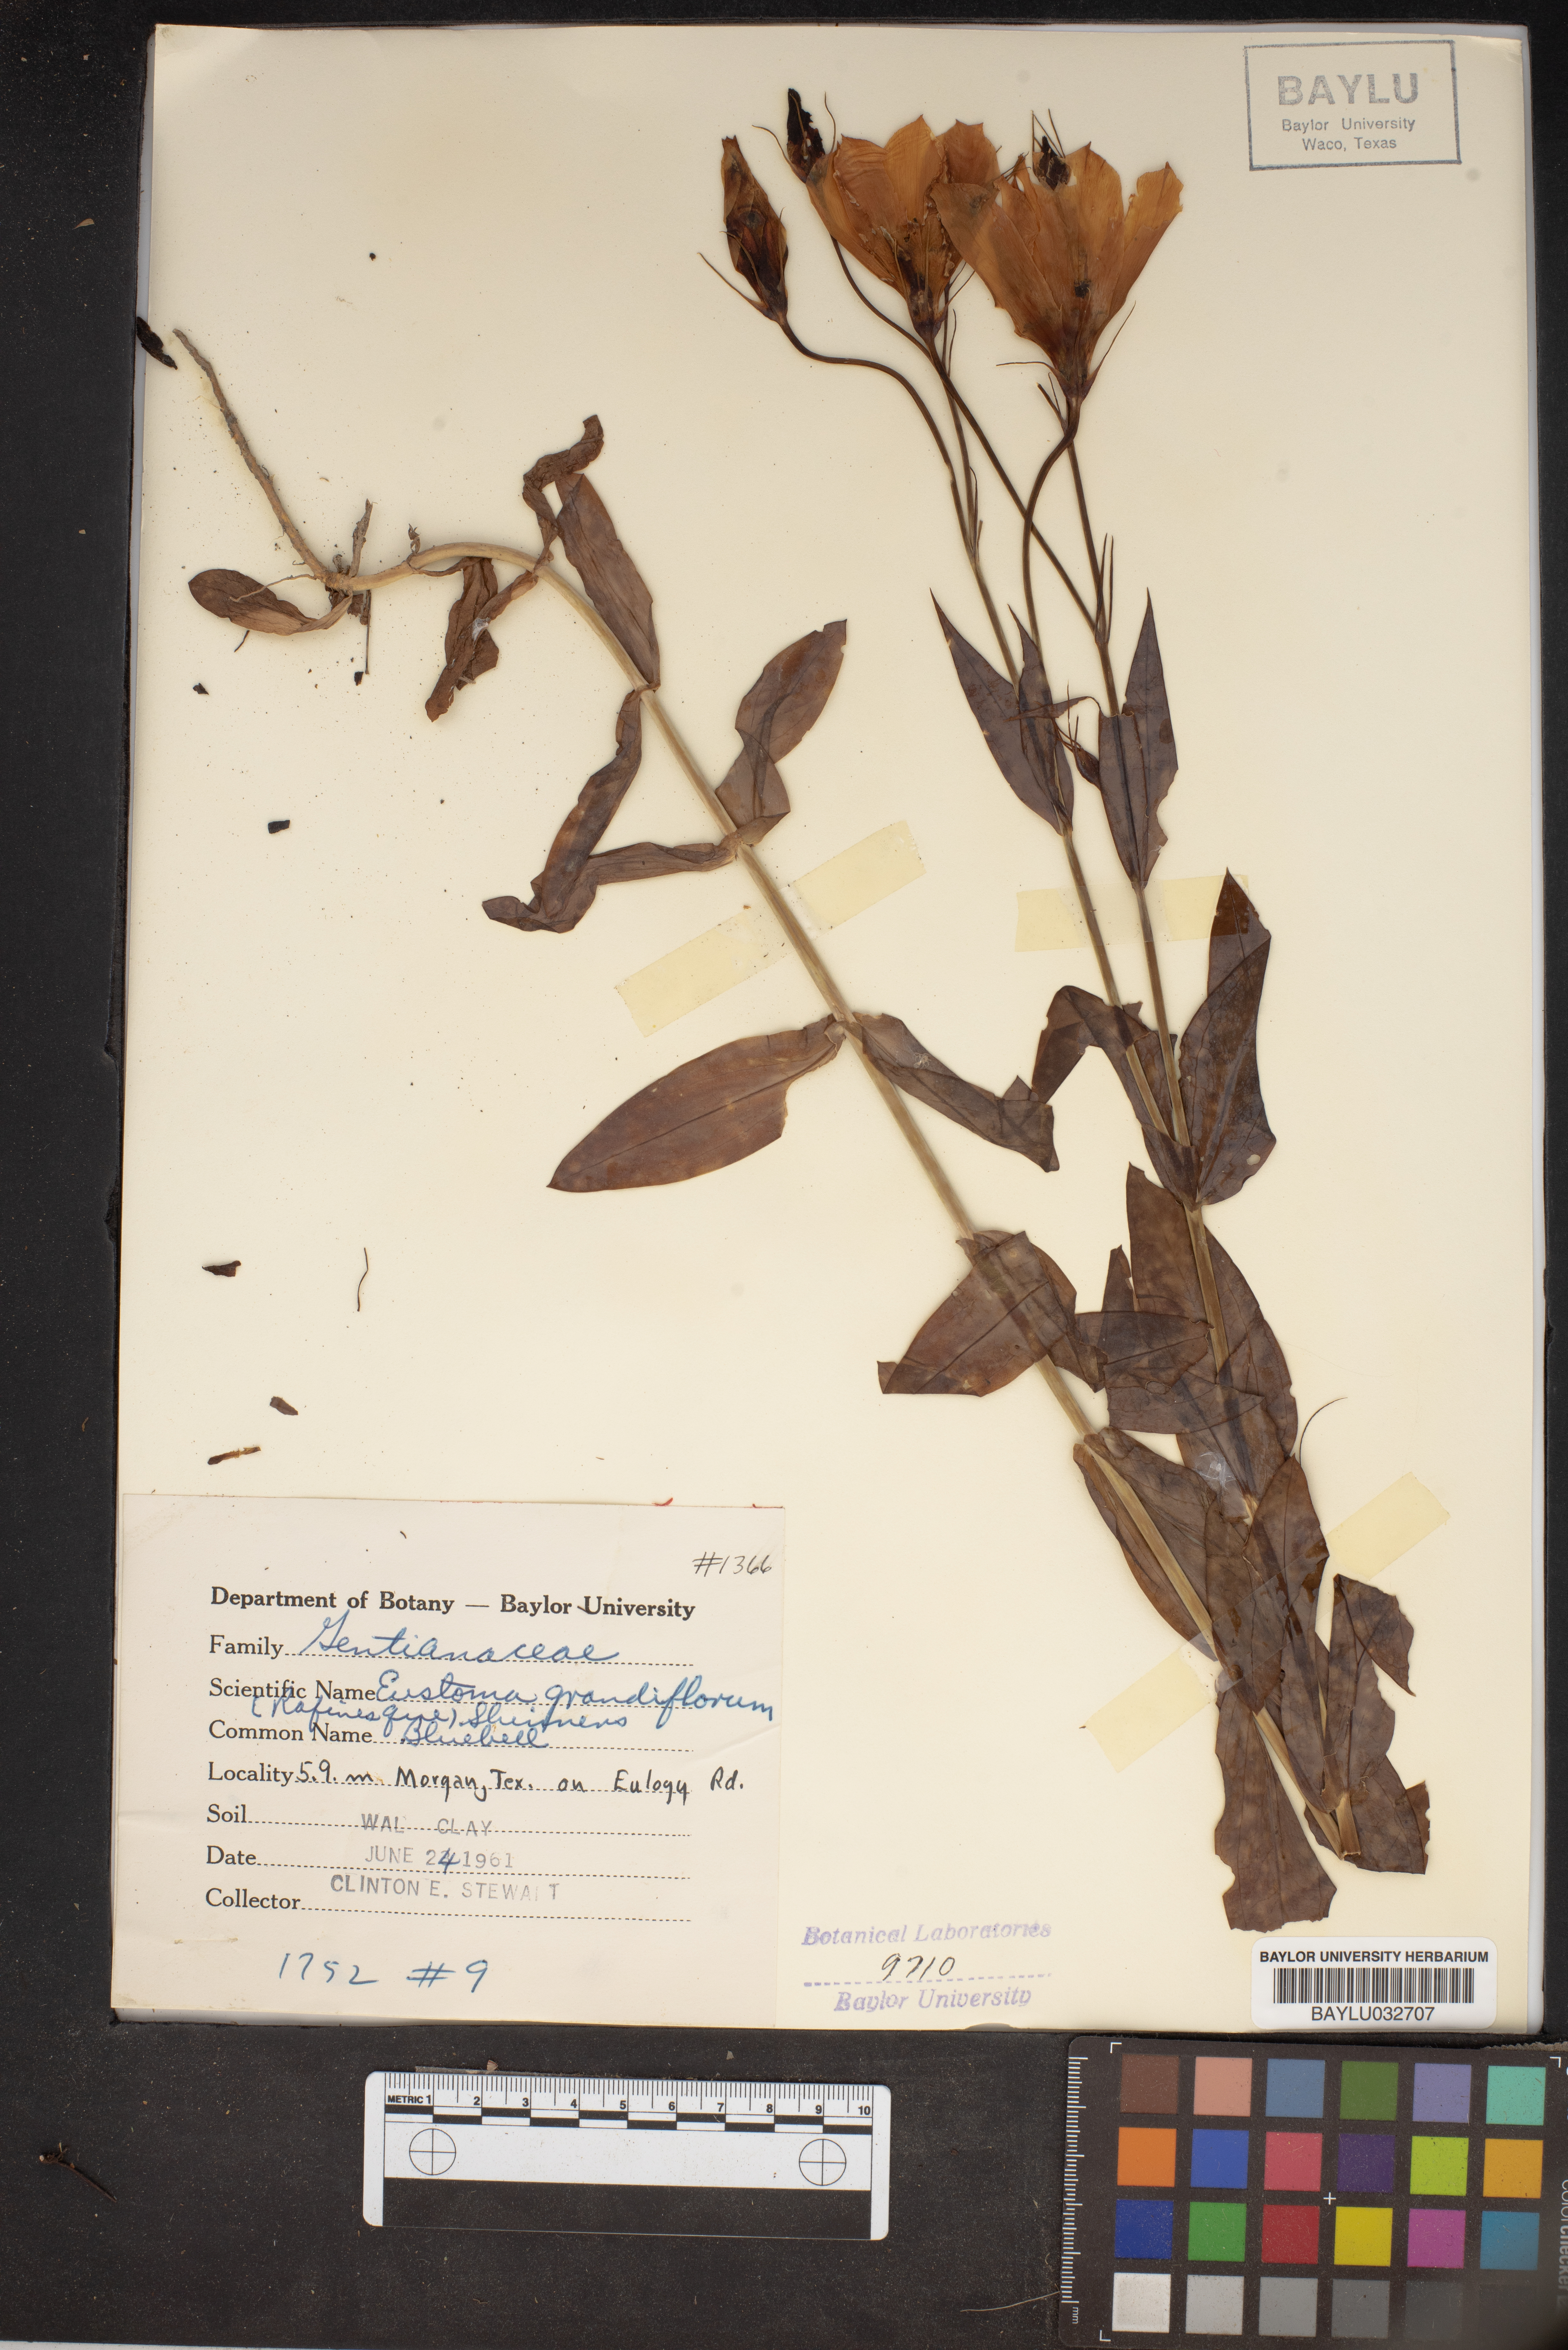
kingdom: Plantae
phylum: Tracheophyta
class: Magnoliopsida
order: Gentianales
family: Gentianaceae
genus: Eustoma
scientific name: Eustoma russellianum
